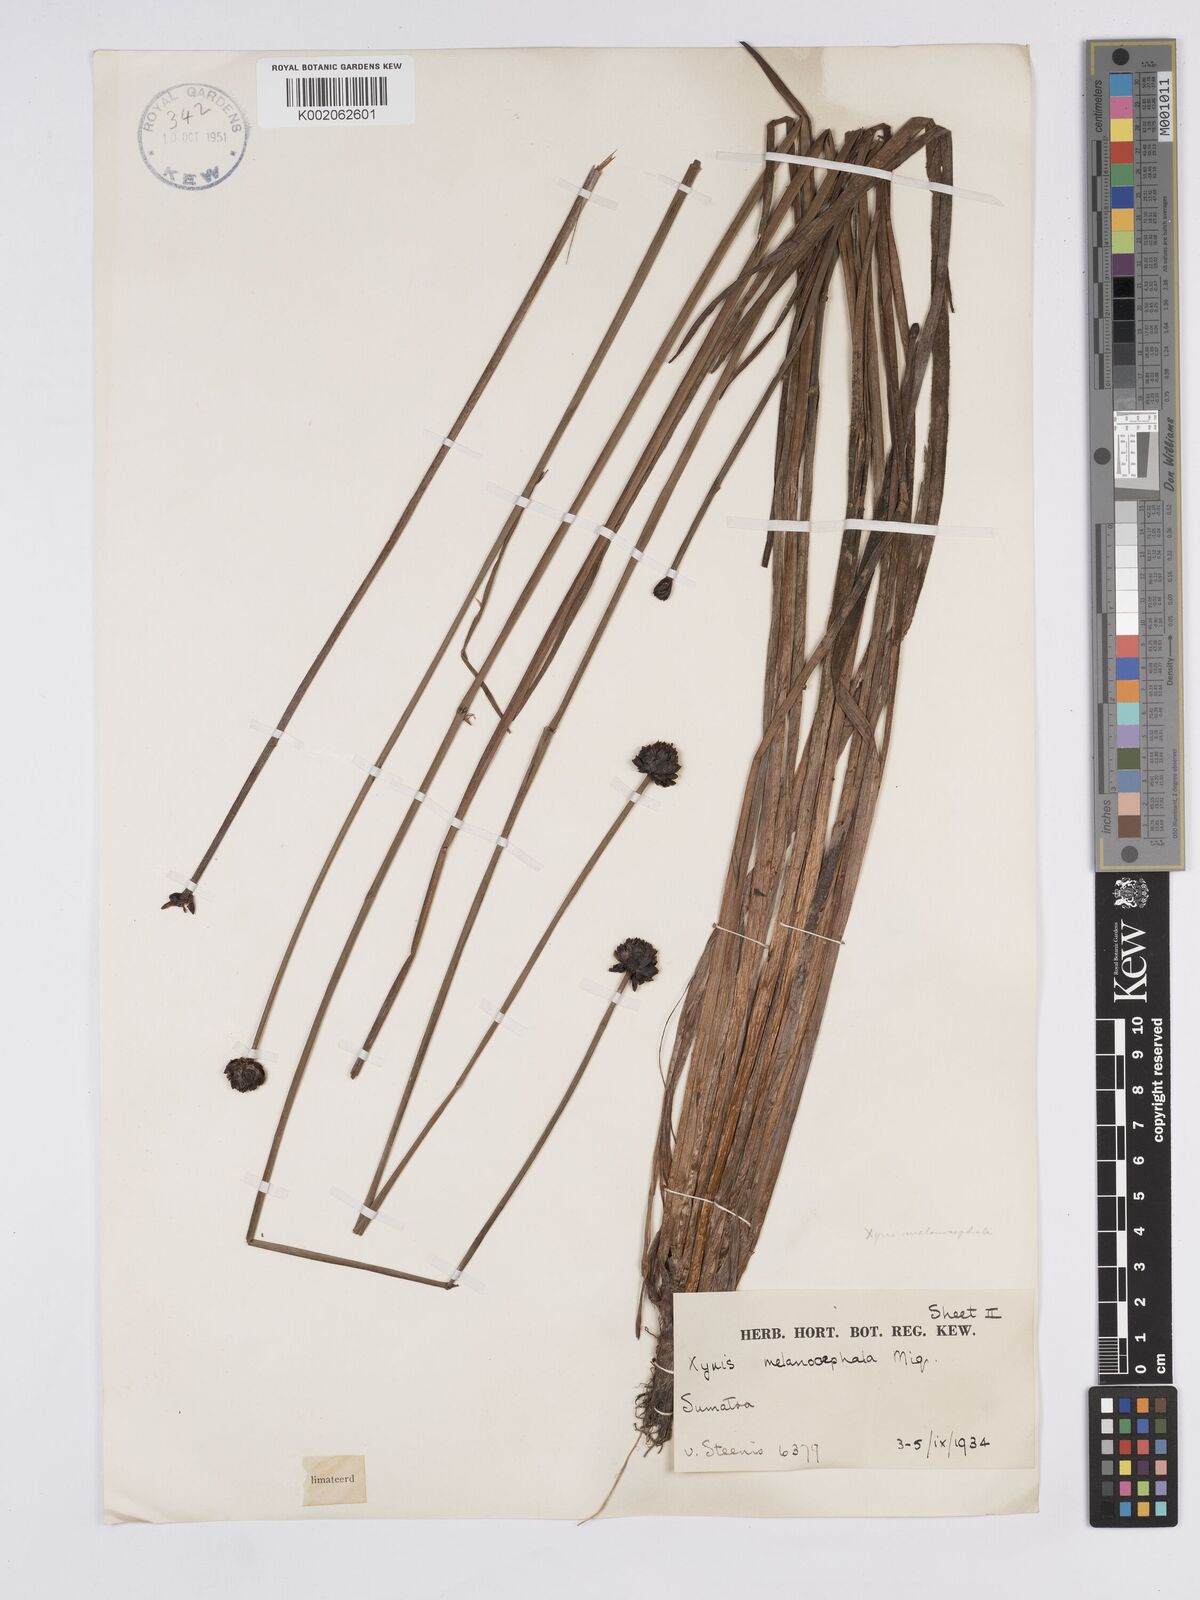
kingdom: Plantae
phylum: Tracheophyta
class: Liliopsida
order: Poales
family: Xyridaceae
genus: Xyris
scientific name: Xyris capensis
